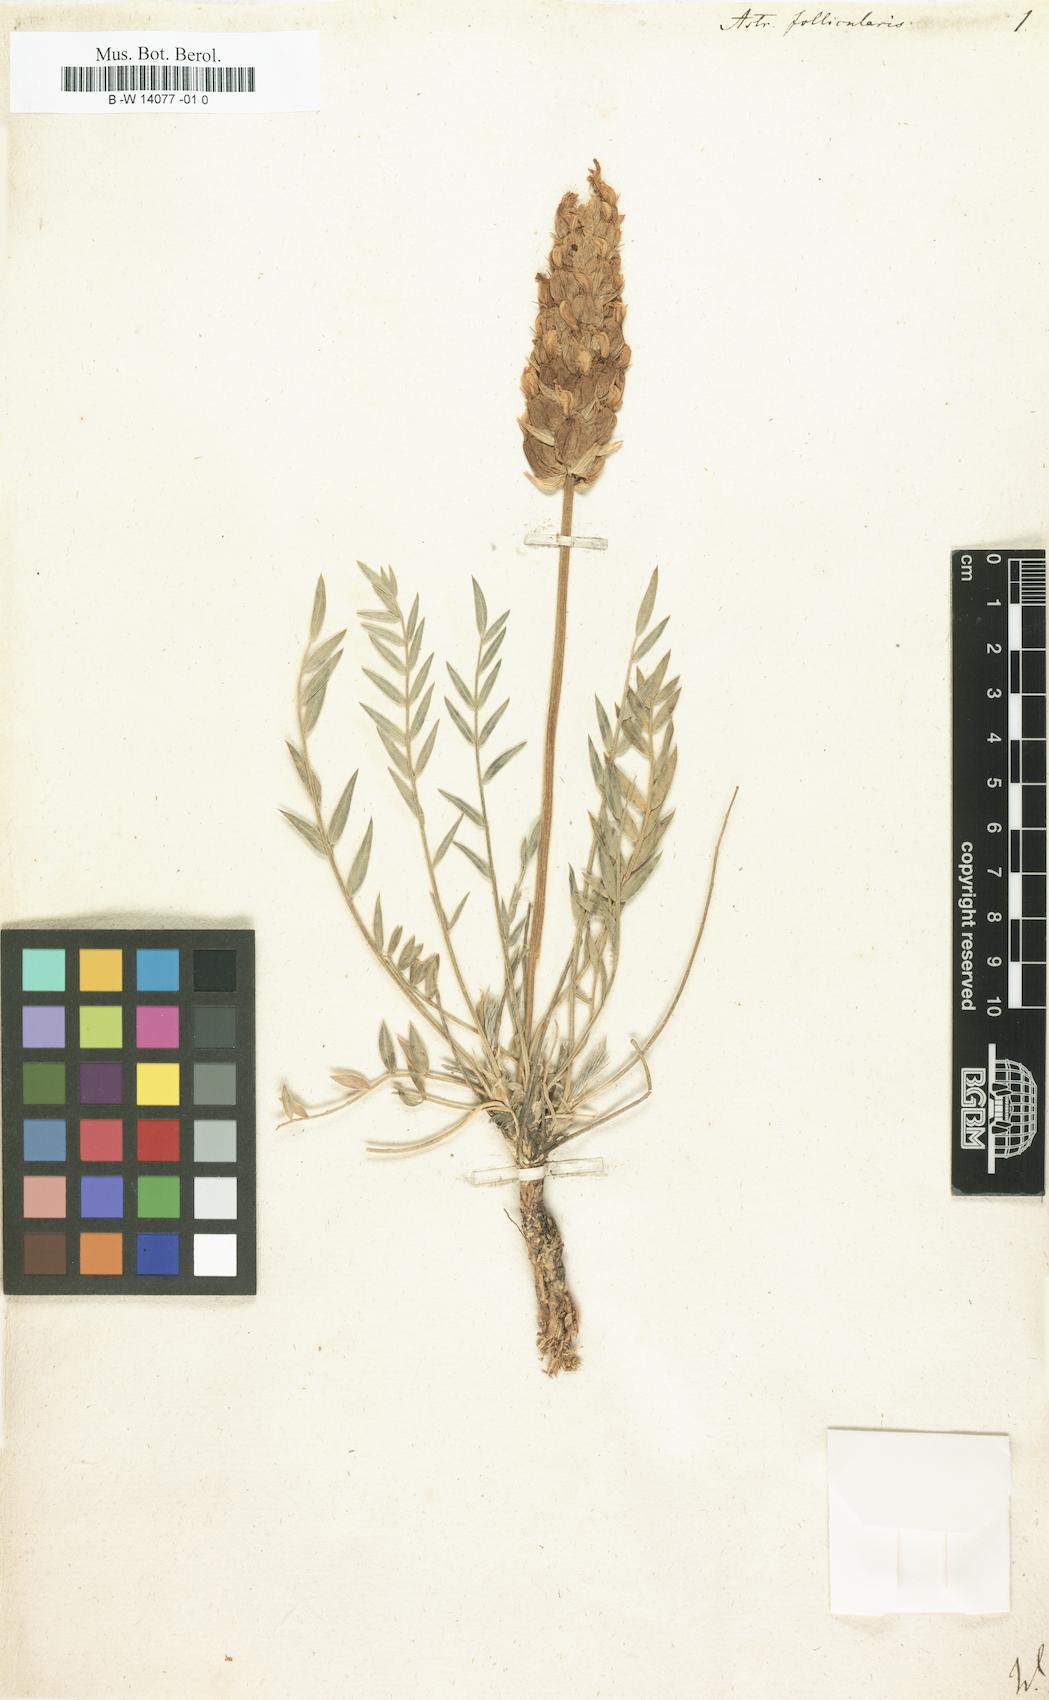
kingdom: Plantae
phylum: Tracheophyta
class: Magnoliopsida
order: Fabales
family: Fabaceae
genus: Astragalus
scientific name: Astragalus follicularis
